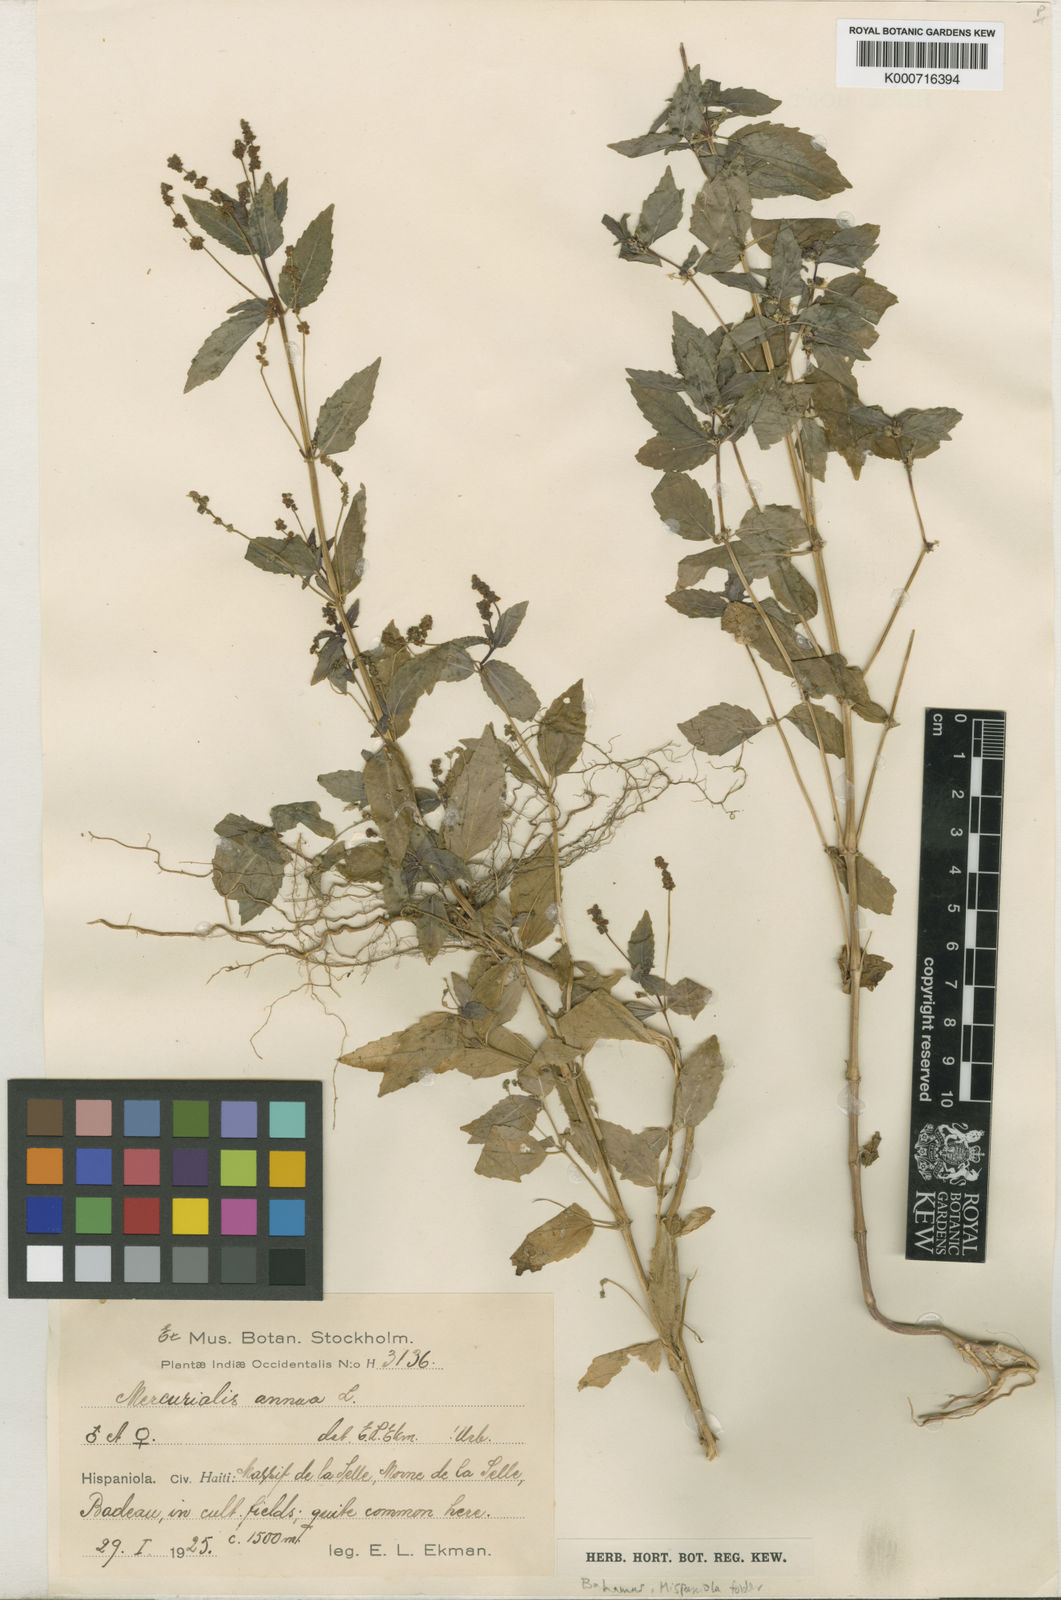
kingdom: Plantae
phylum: Tracheophyta
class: Magnoliopsida
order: Malpighiales
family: Euphorbiaceae
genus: Mercurialis
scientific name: Mercurialis annua
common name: Annual mercury
